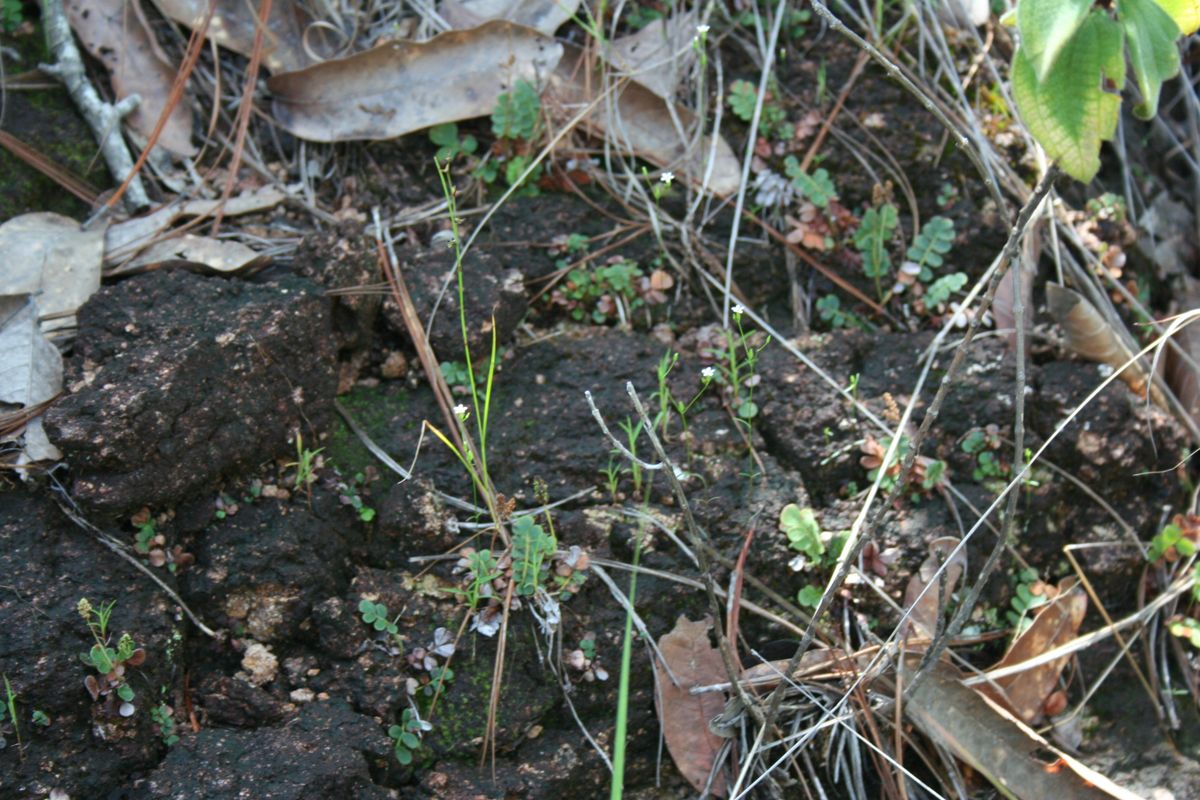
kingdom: Plantae
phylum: Tracheophyta
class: Magnoliopsida
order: Gentianales
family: Gentianaceae
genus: Curtia
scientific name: Curtia tenella
